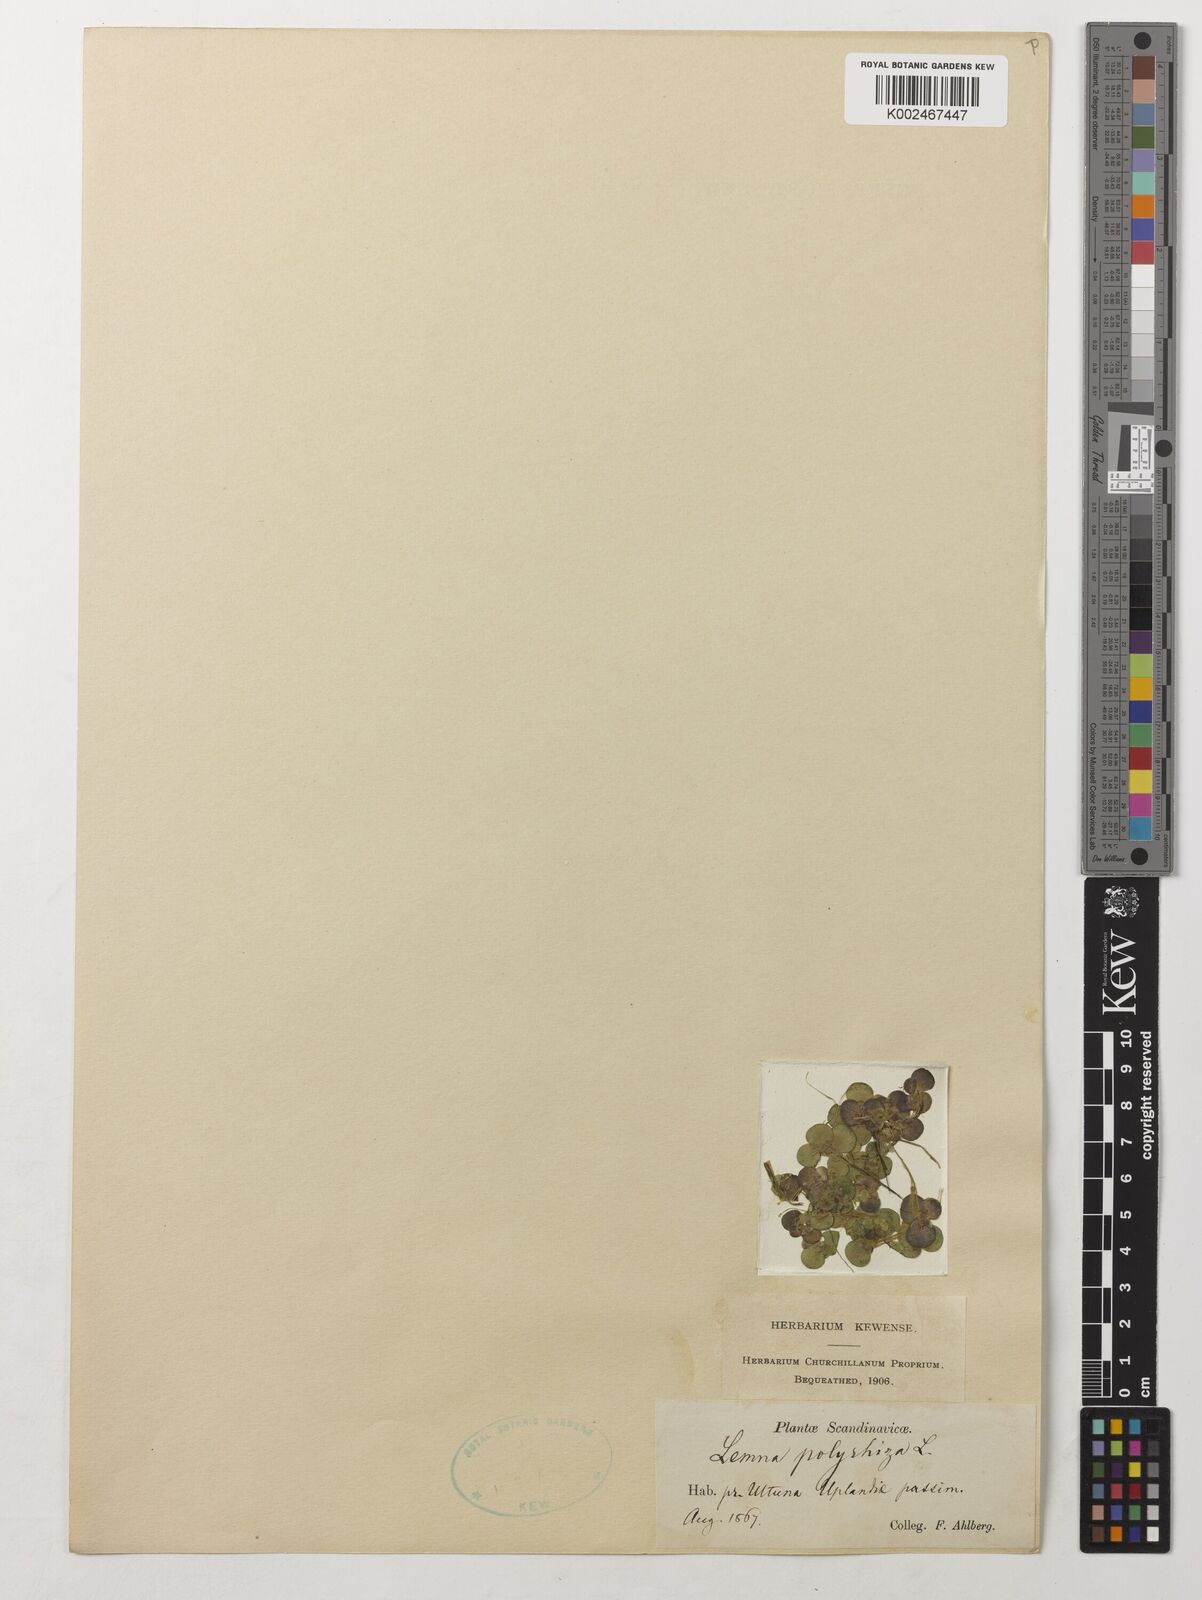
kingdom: Plantae
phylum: Tracheophyta
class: Liliopsida
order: Alismatales
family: Araceae
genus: Spirodela
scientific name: Spirodela polyrhiza
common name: Great duckweed
